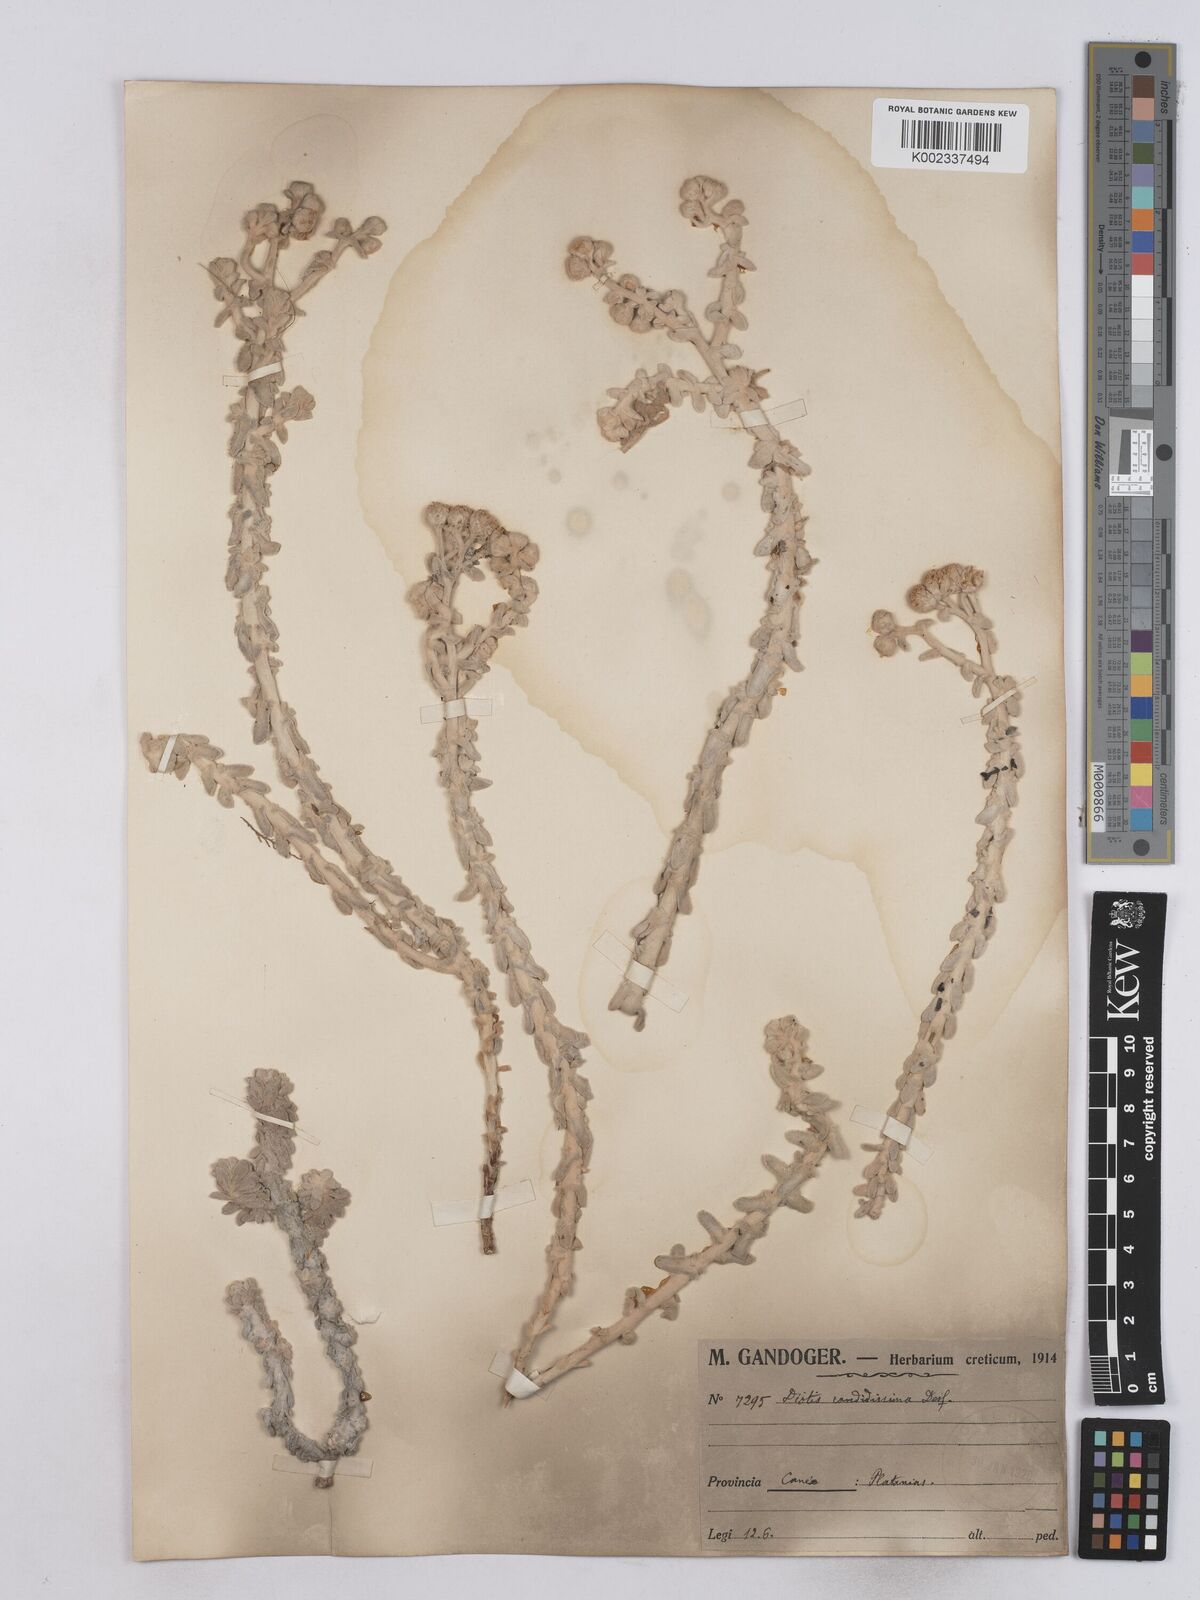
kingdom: Plantae
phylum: Tracheophyta
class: Magnoliopsida
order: Asterales
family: Asteraceae
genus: Achillea
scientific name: Achillea maritima
